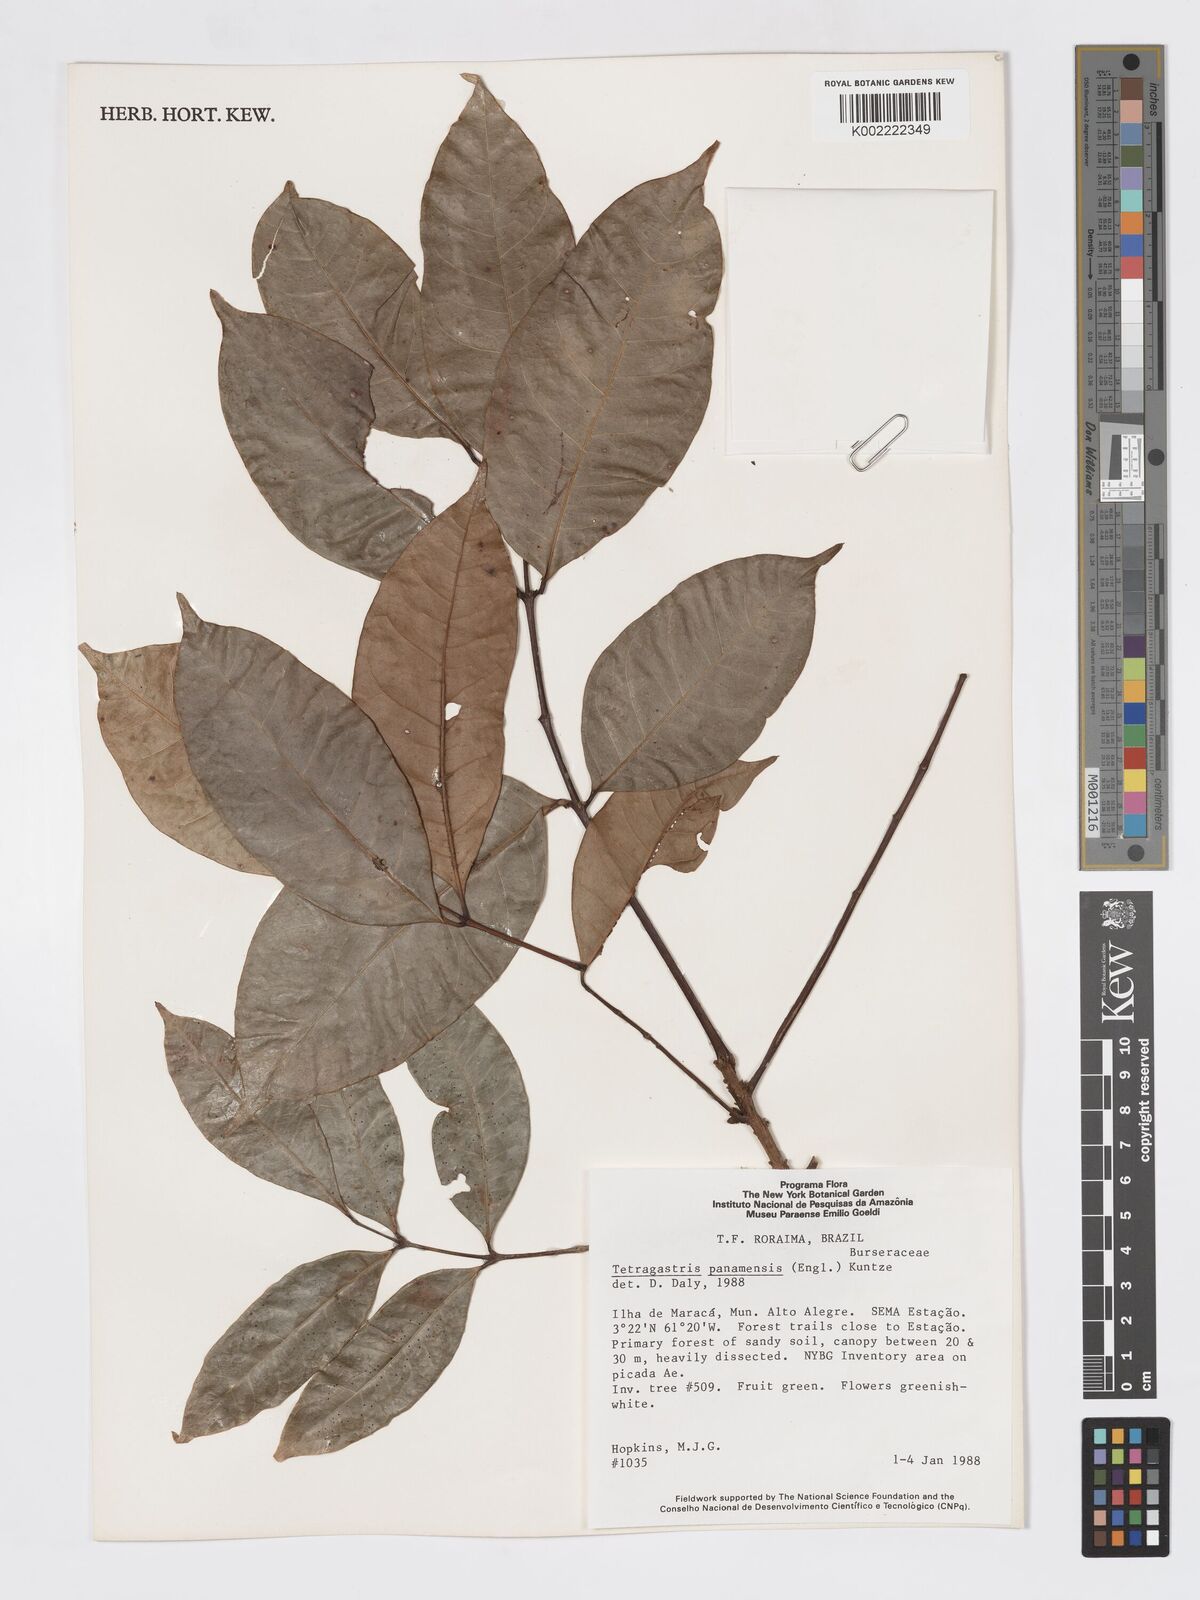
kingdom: Plantae
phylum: Tracheophyta
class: Magnoliopsida
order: Sapindales
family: Burseraceae
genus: Tetragastris
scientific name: Tetragastris panamensis
